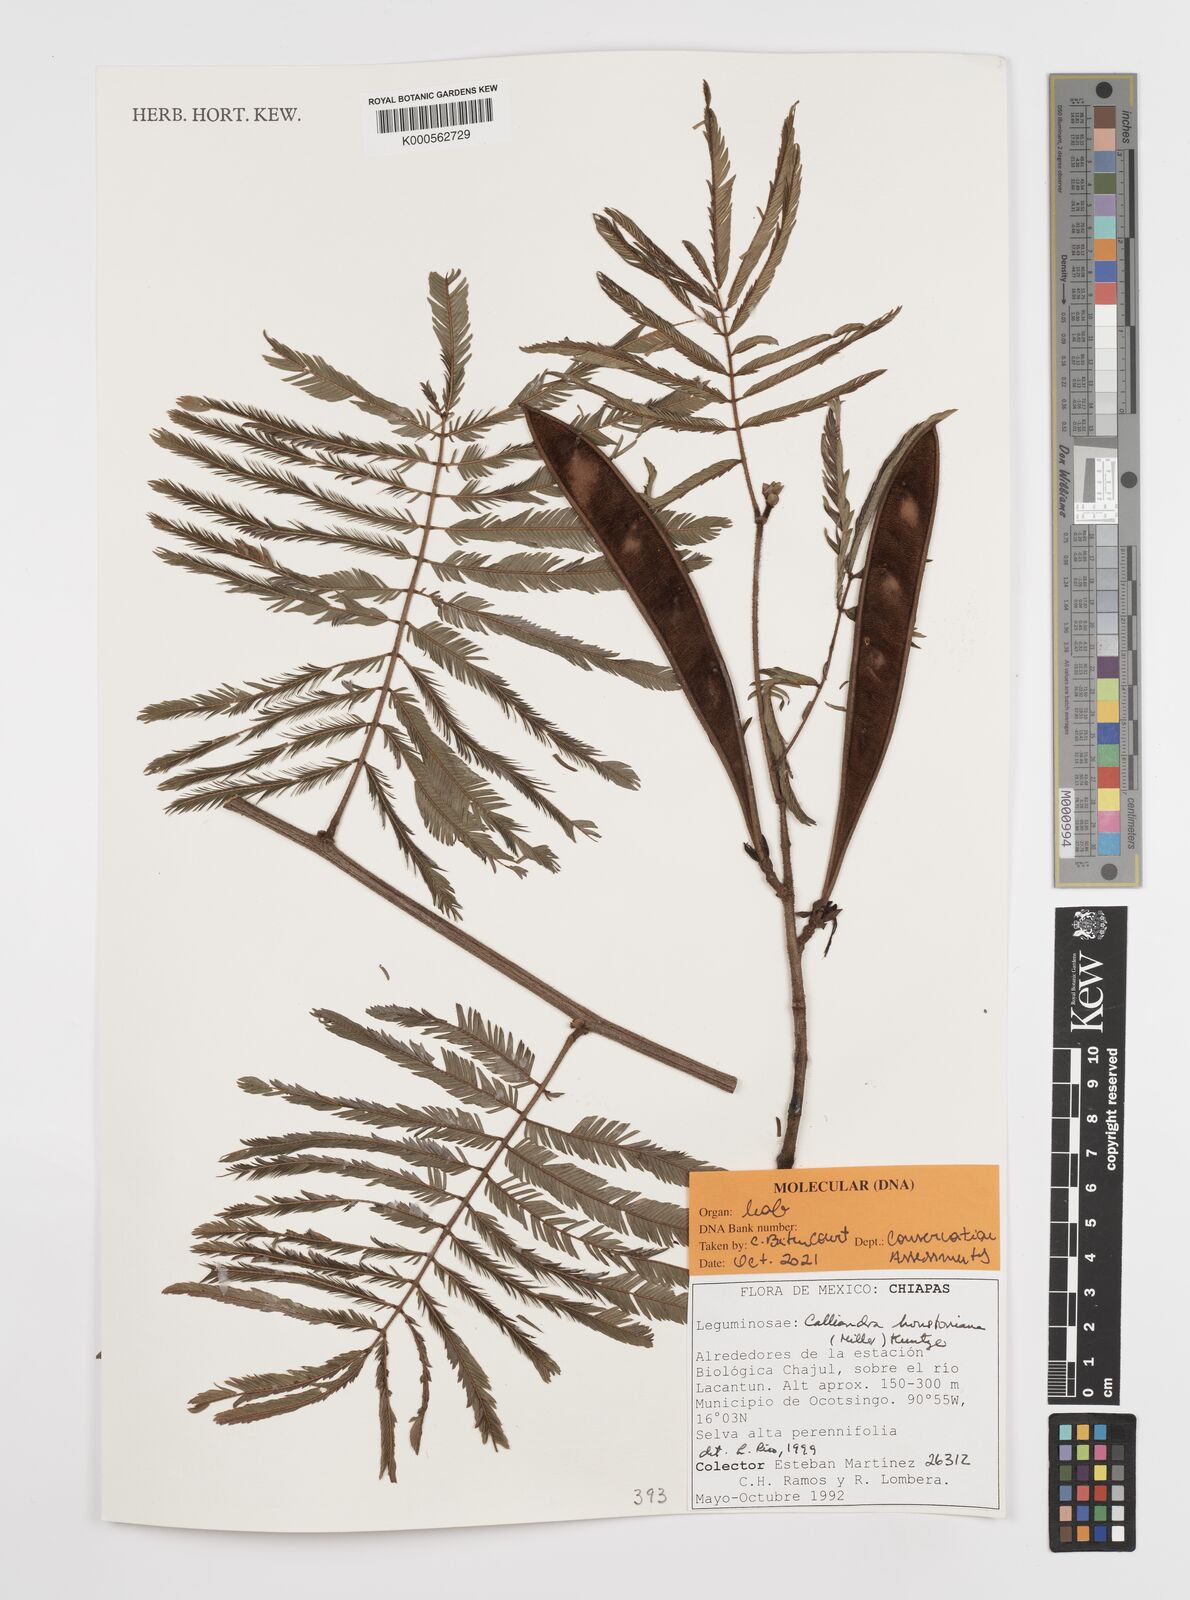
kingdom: Plantae
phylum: Tracheophyta
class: Magnoliopsida
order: Fabales
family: Fabaceae
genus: Calliandra
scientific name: Calliandra houstoniana
